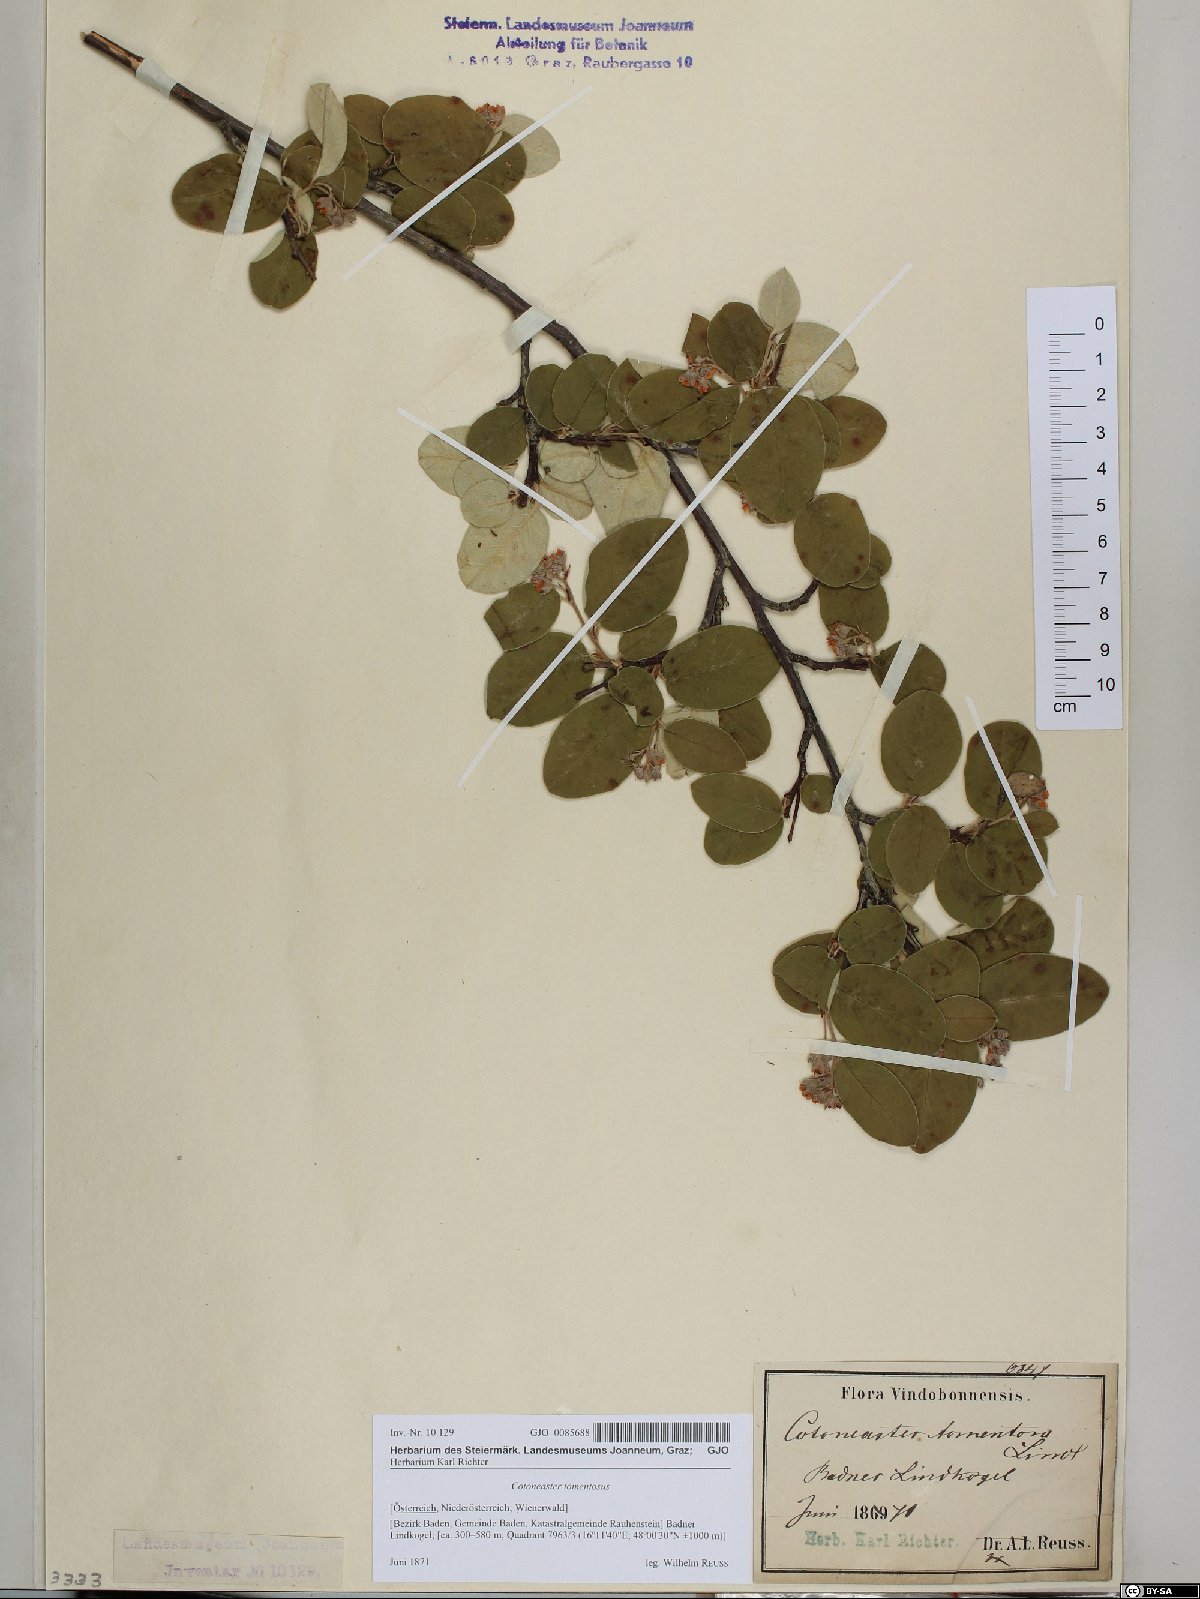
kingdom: Plantae
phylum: Tracheophyta
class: Magnoliopsida
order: Rosales
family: Rosaceae
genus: Cotoneaster
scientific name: Cotoneaster tomentosus
